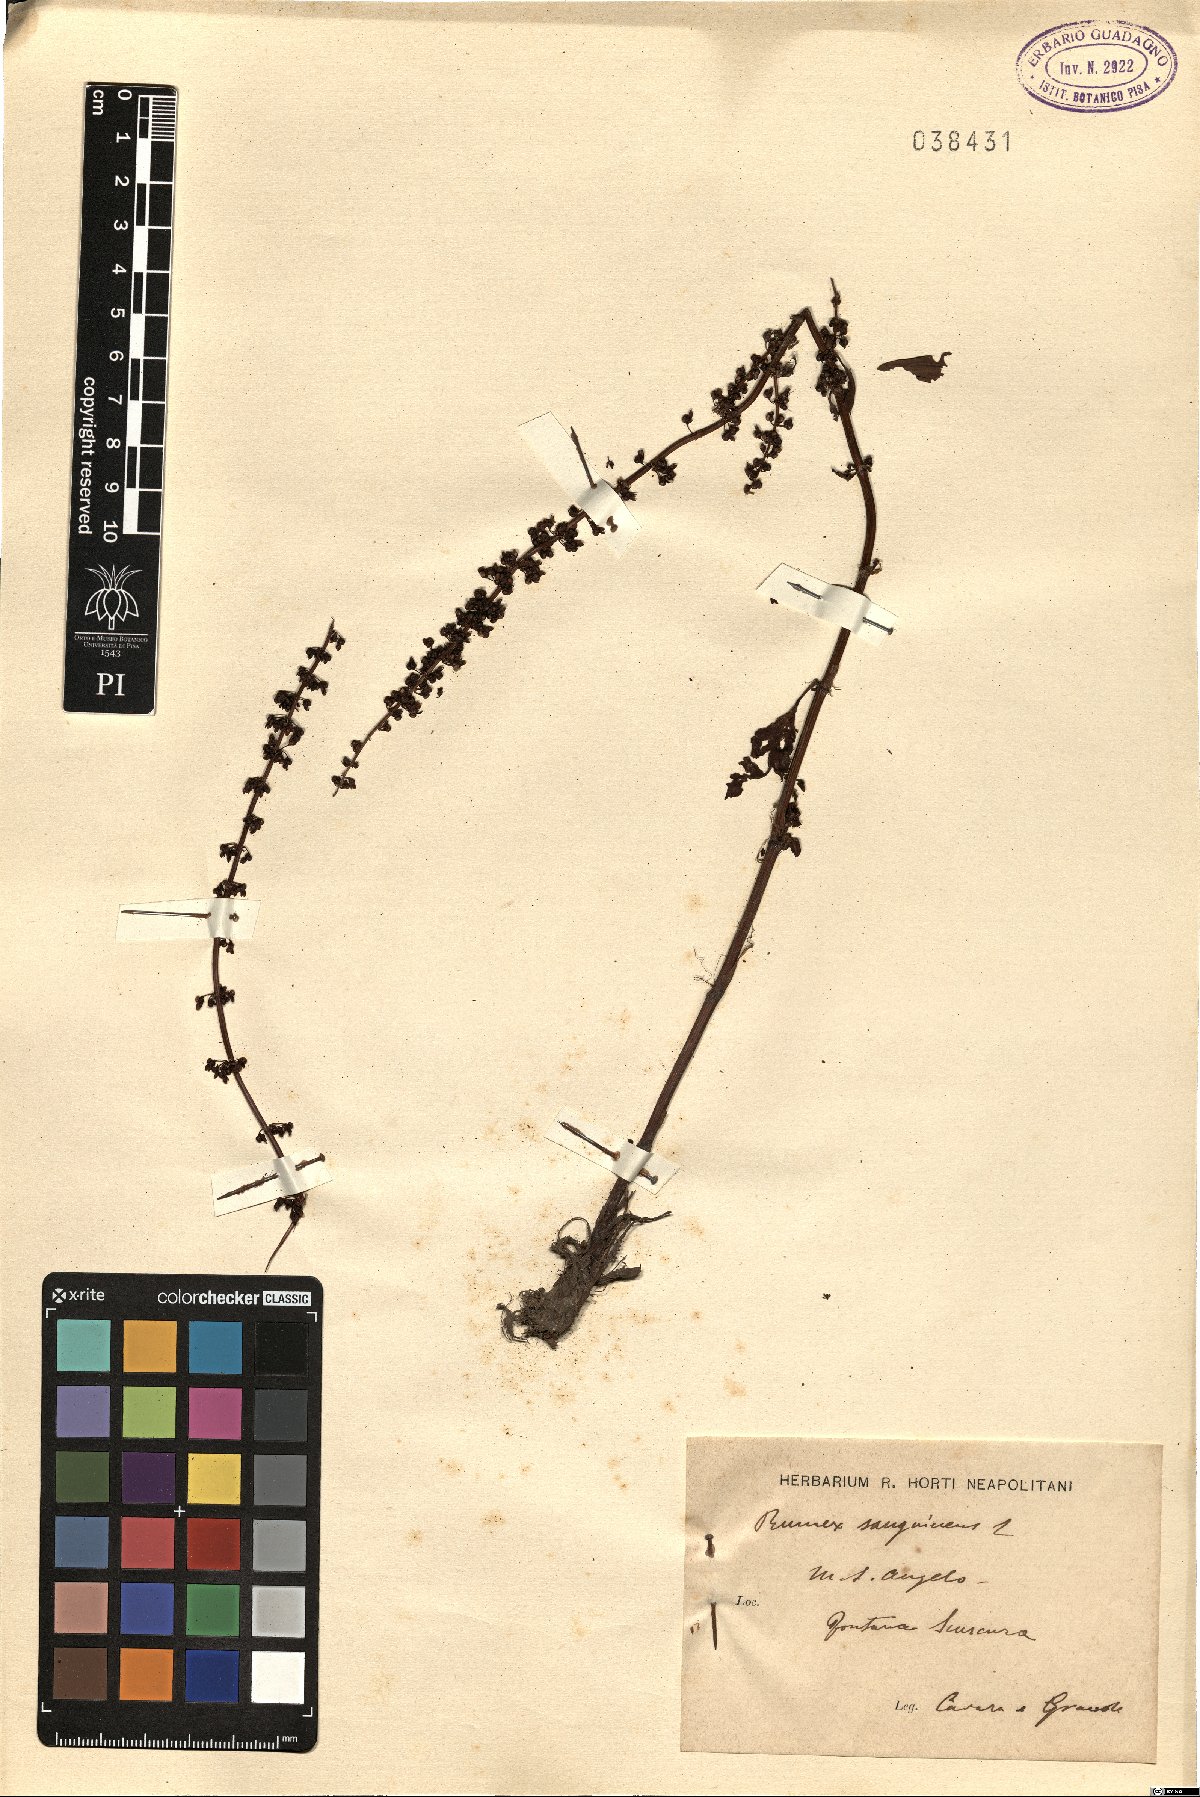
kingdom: Plantae
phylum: Tracheophyta
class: Magnoliopsida
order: Caryophyllales
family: Polygonaceae
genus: Rumex
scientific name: Rumex sanguineus
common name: Wood dock
